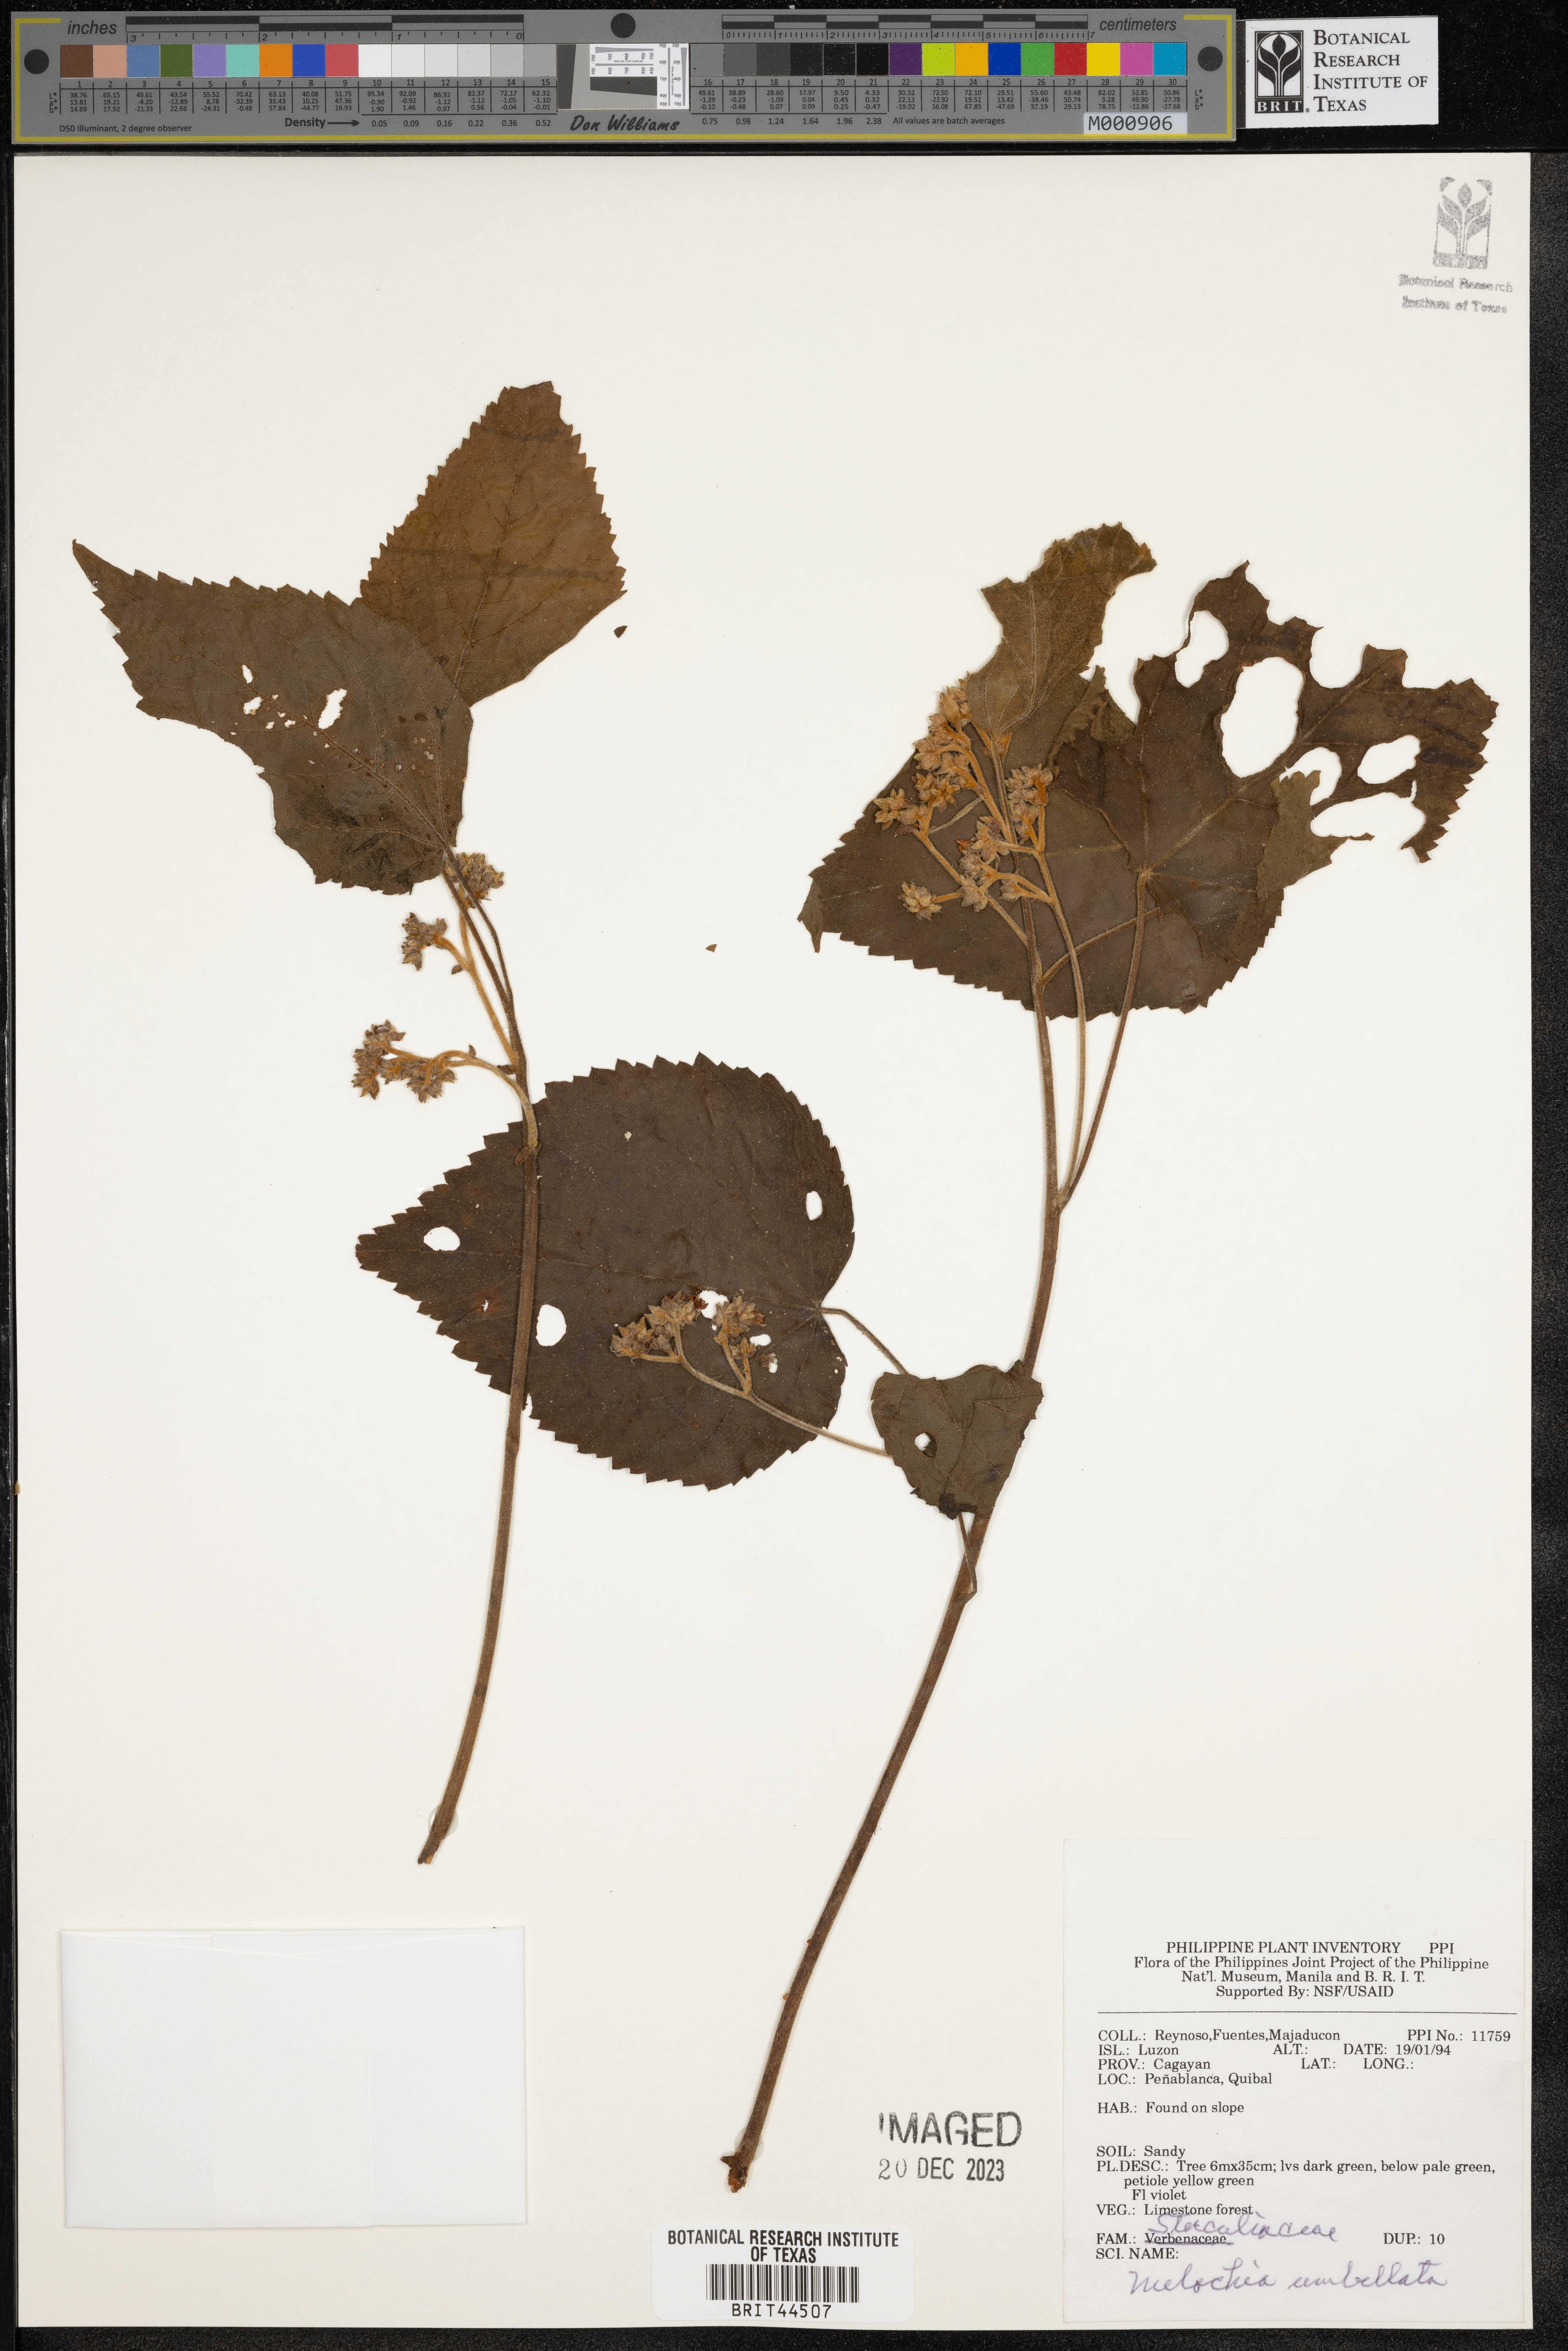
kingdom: Plantae
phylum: Tracheophyta
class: Magnoliopsida
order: Malvales
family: Malvaceae
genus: Melochia
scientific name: Melochia umbellata
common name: Gunpowder tree
